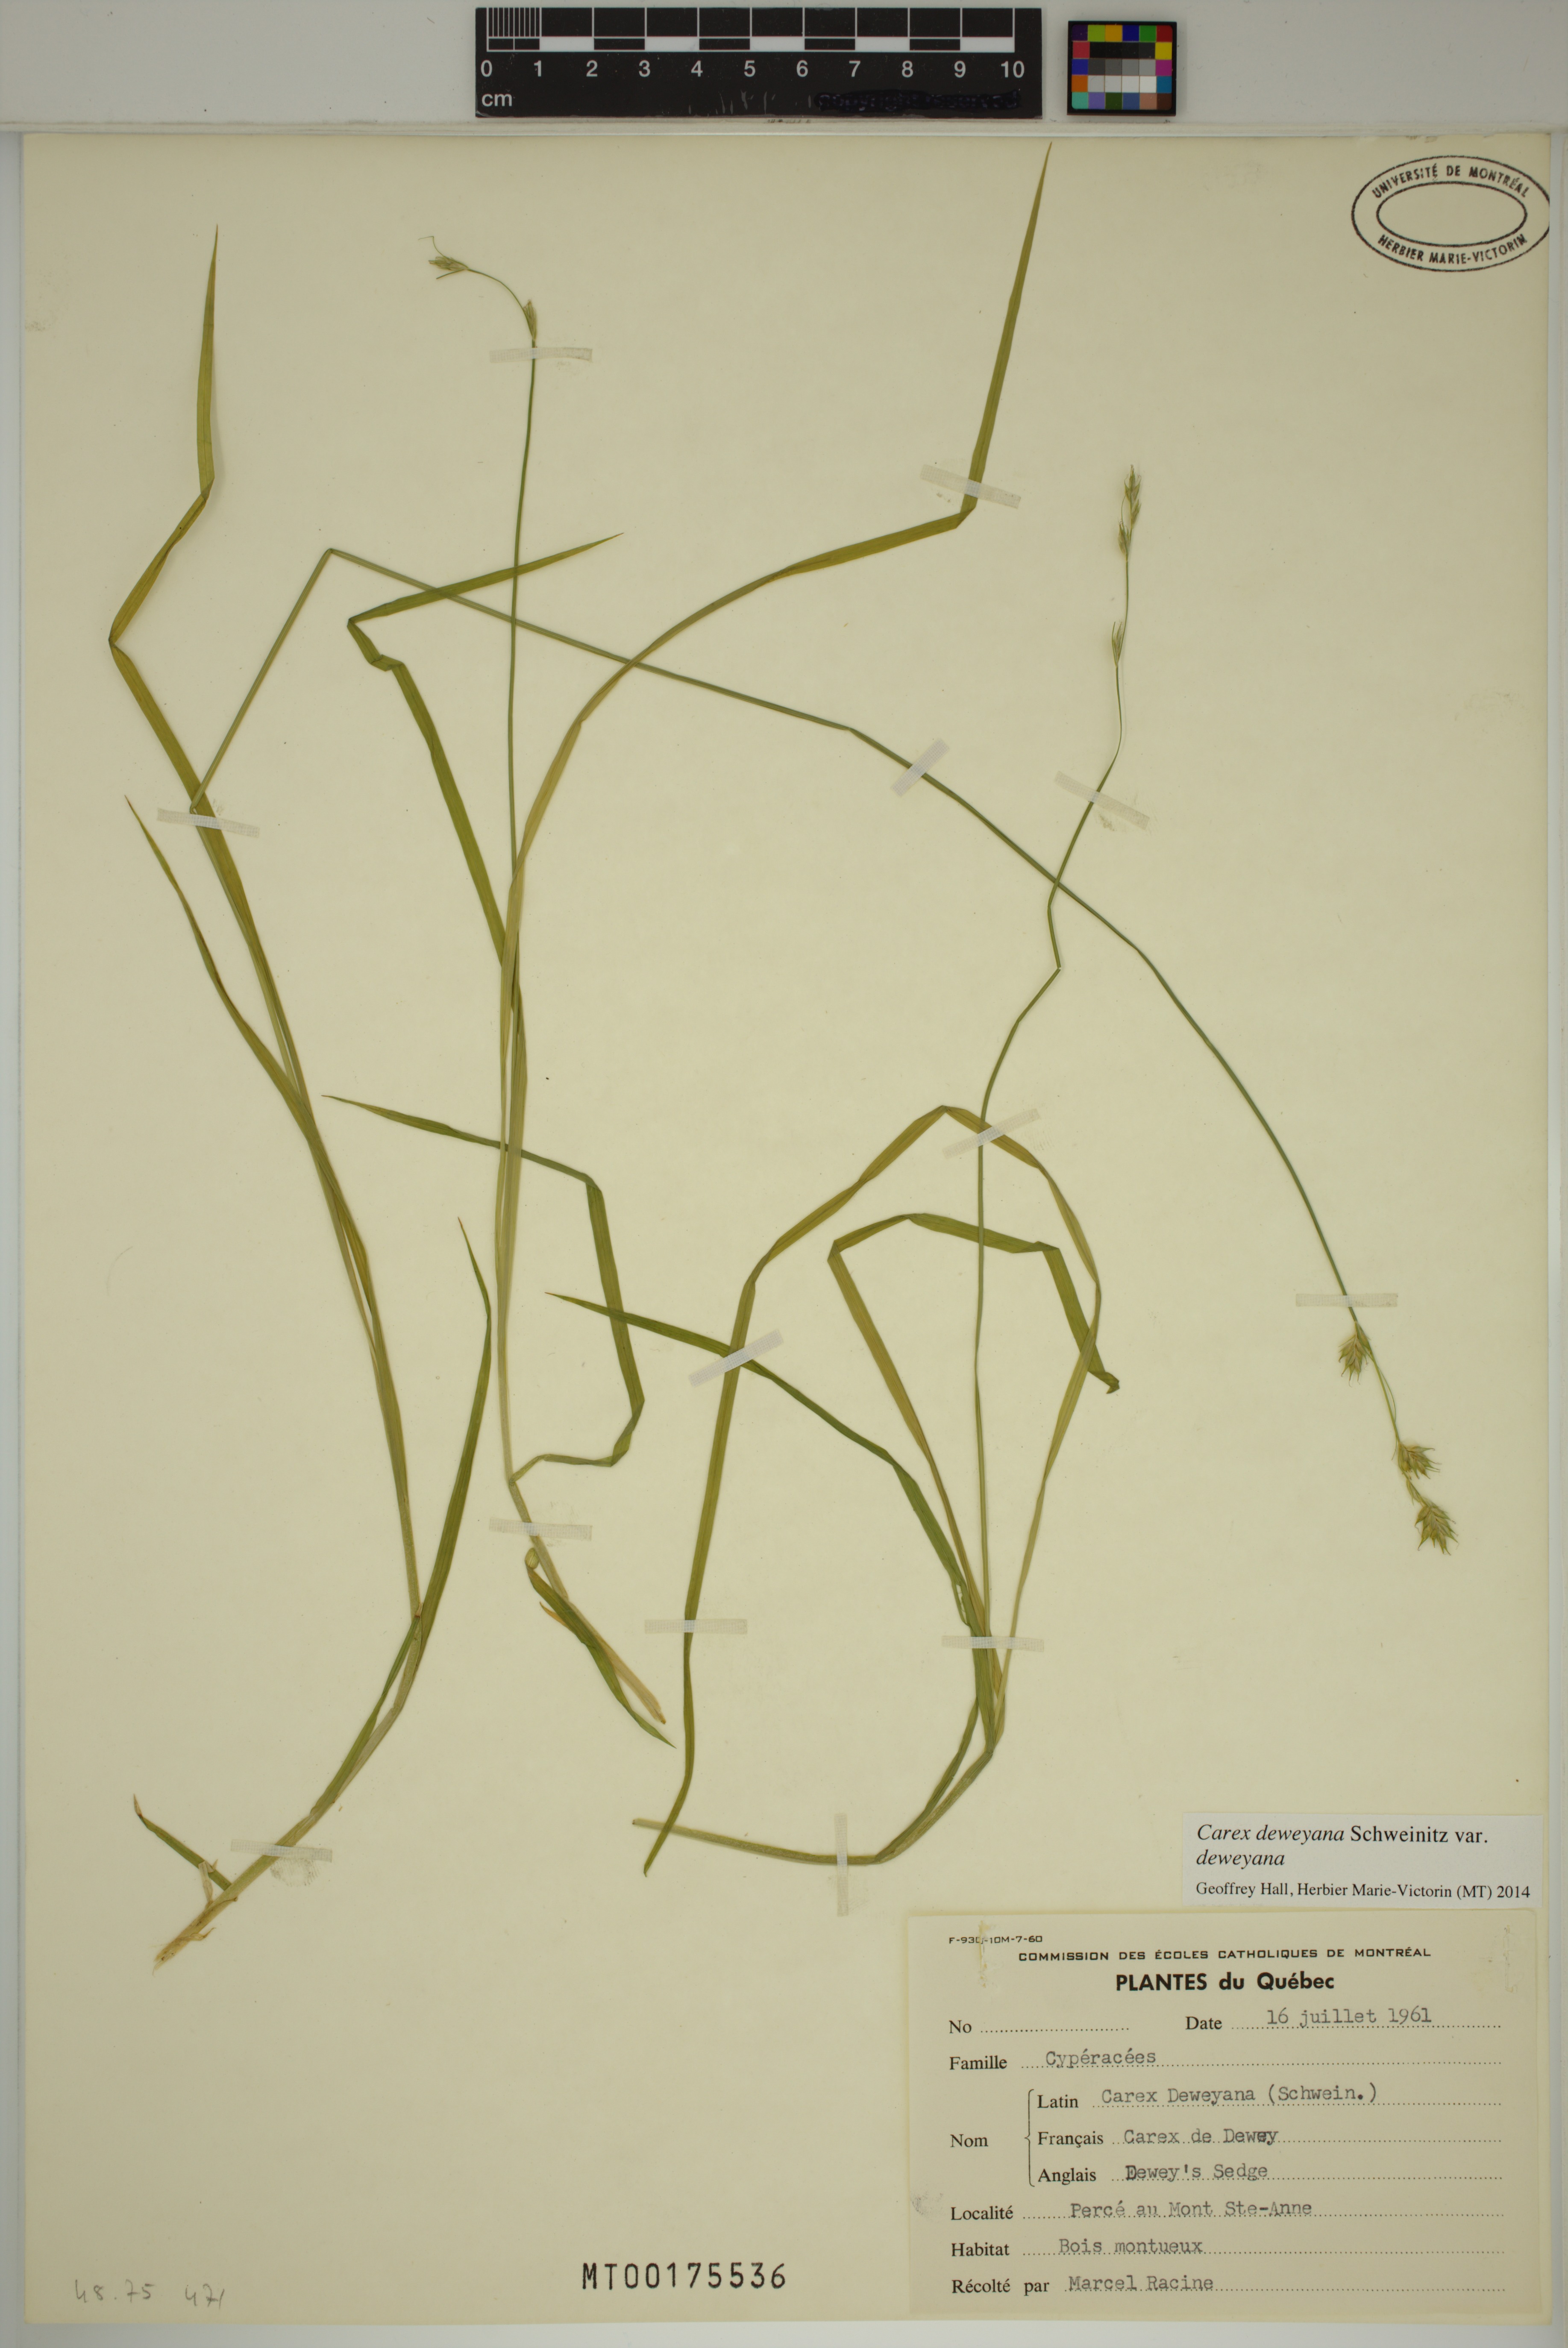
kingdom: Plantae
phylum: Tracheophyta
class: Liliopsida
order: Poales
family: Cyperaceae
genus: Carex
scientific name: Carex deweyana
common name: Dewey's sedge
